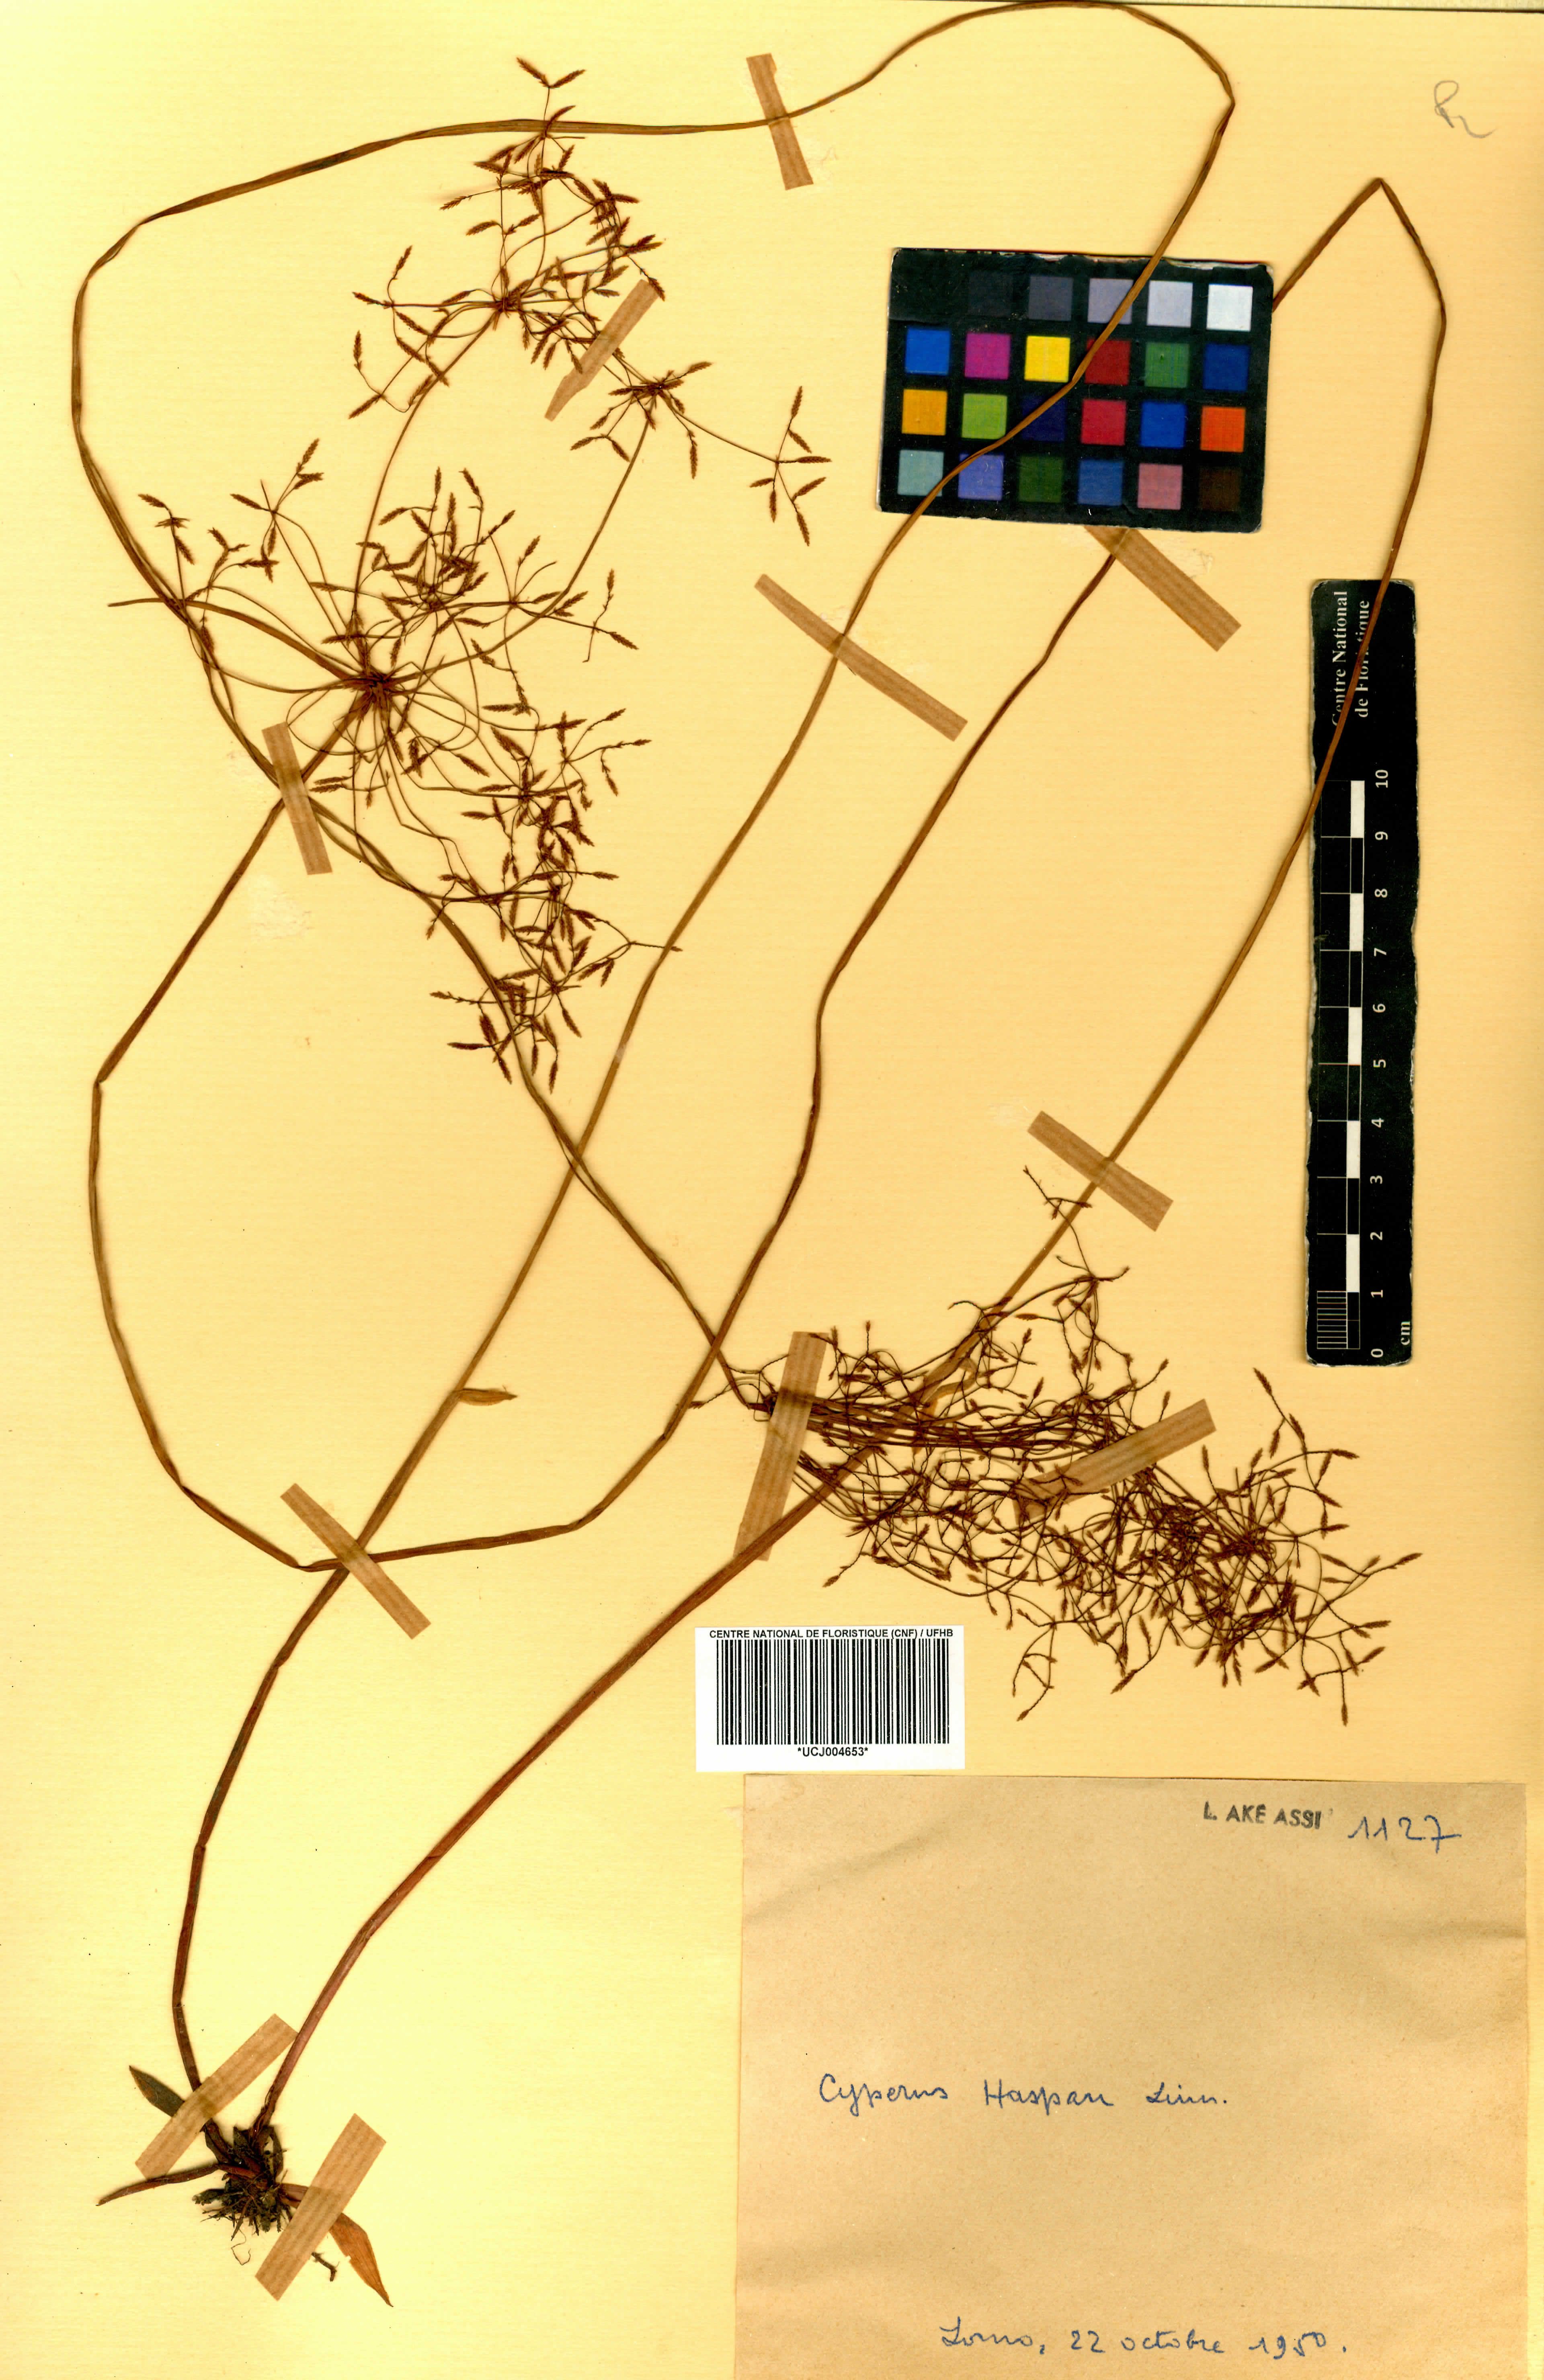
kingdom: Plantae
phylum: Tracheophyta
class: Liliopsida
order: Poales
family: Cyperaceae
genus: Cyperus
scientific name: Cyperus haspan
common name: Haspan flatsedge
